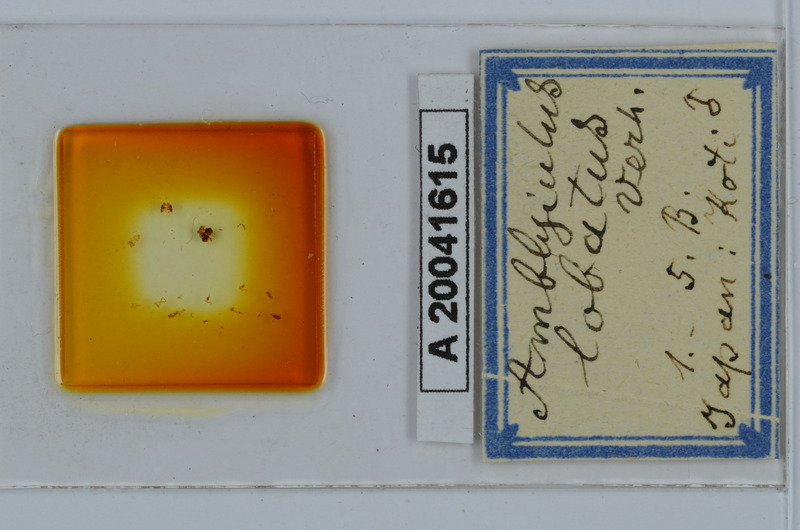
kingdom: Animalia
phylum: Arthropoda
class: Diplopoda
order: Julida
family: Julidae
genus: Japanioiulus
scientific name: Japanioiulus lobatus
